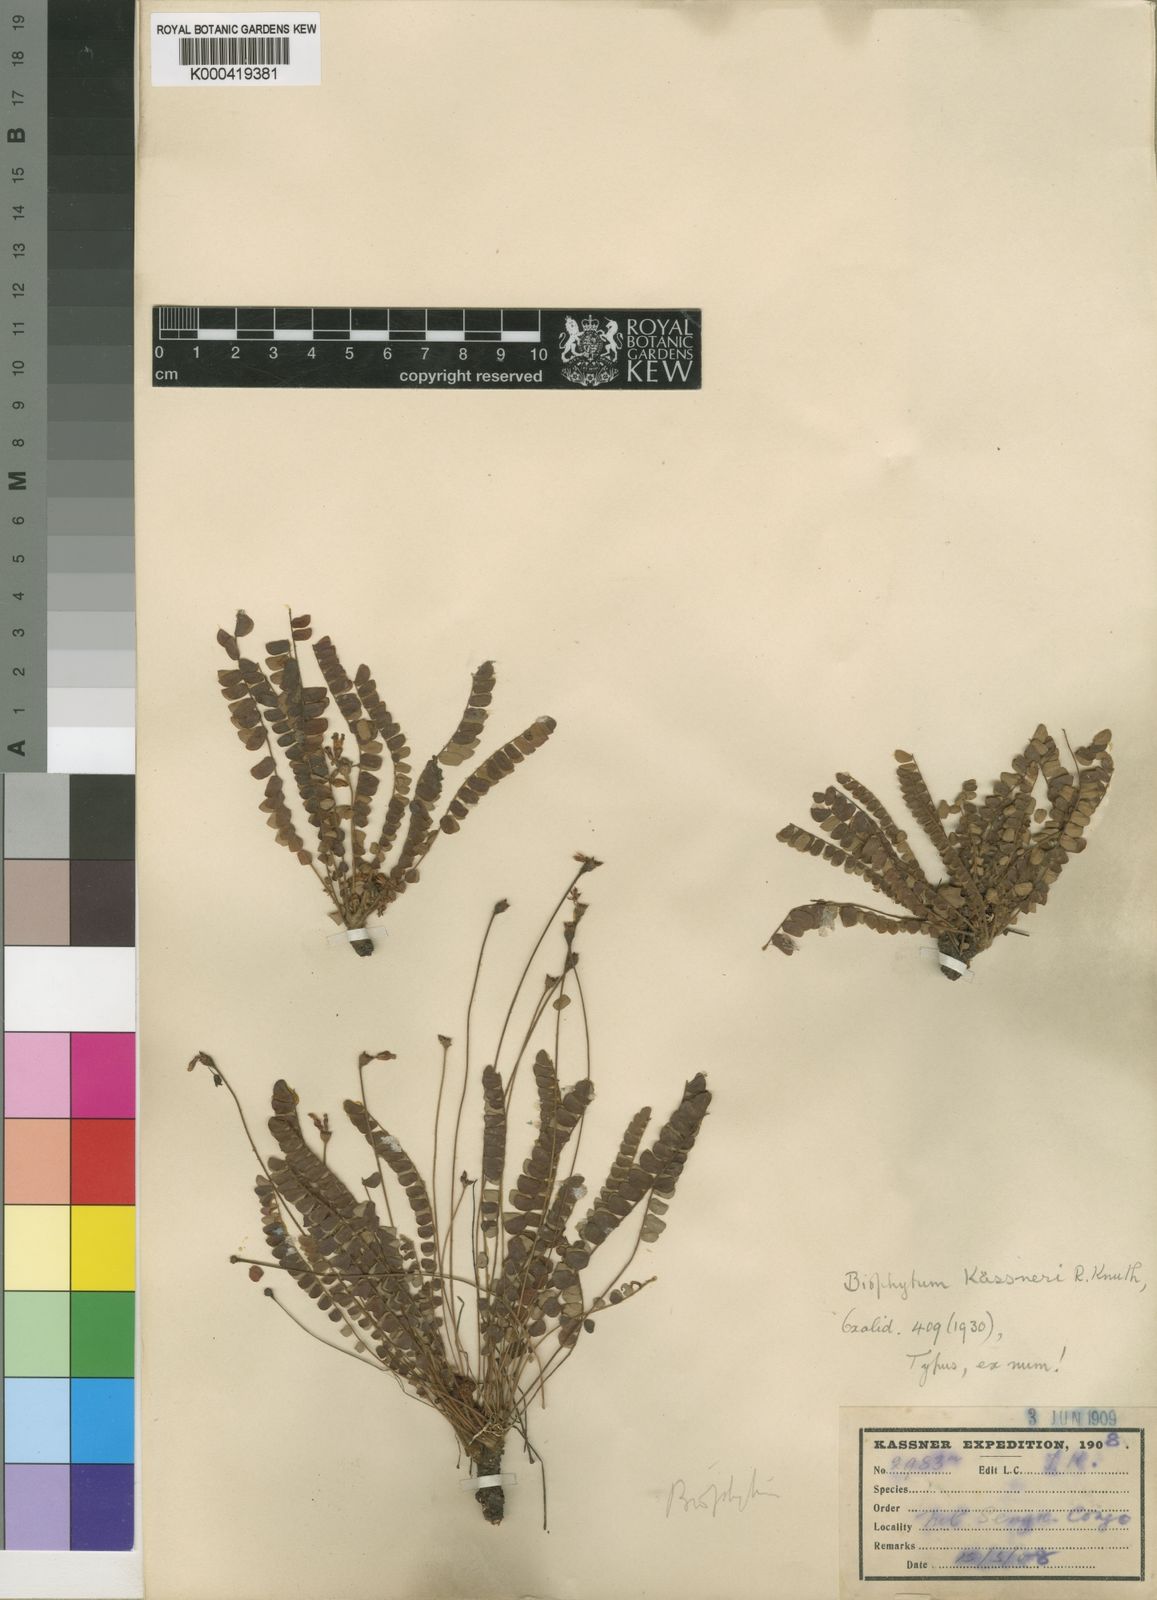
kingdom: Plantae
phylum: Tracheophyta
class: Magnoliopsida
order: Oxalidales
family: Oxalidaceae
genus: Biophytum
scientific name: Biophytum kassneri
